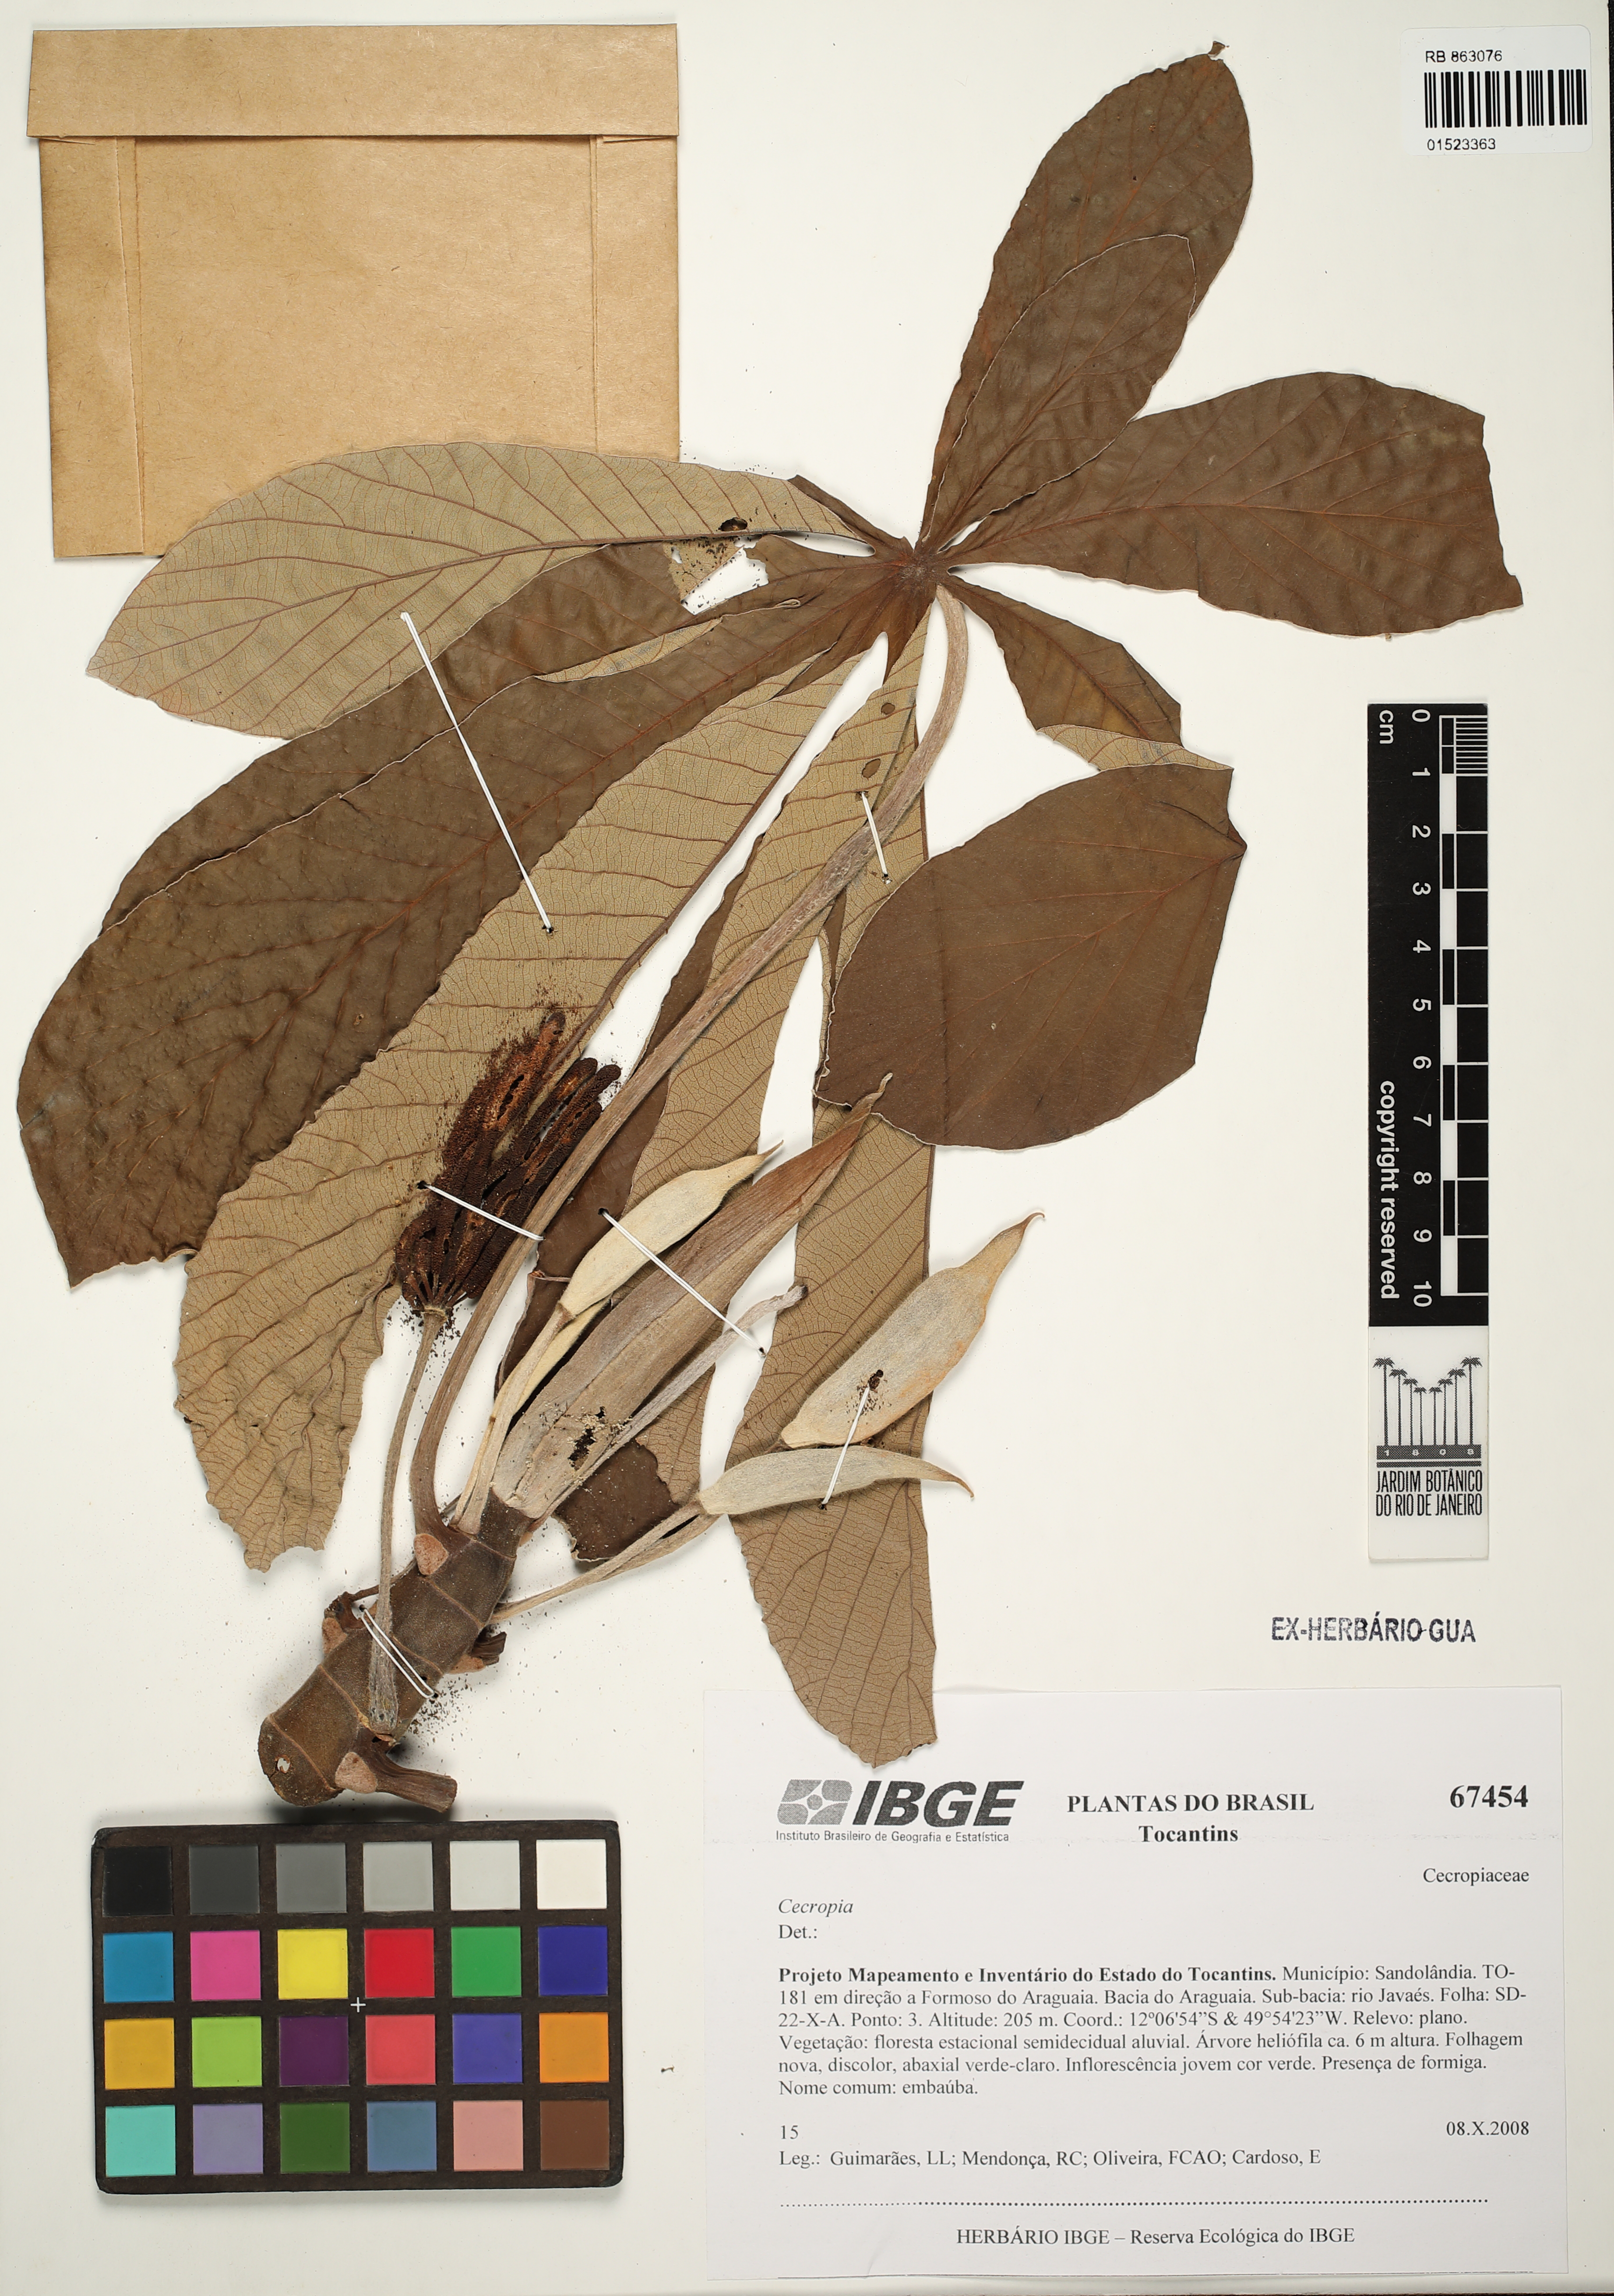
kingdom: Plantae
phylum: Tracheophyta
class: Magnoliopsida
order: Rosales
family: Urticaceae
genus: Cecropia
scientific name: Cecropia
